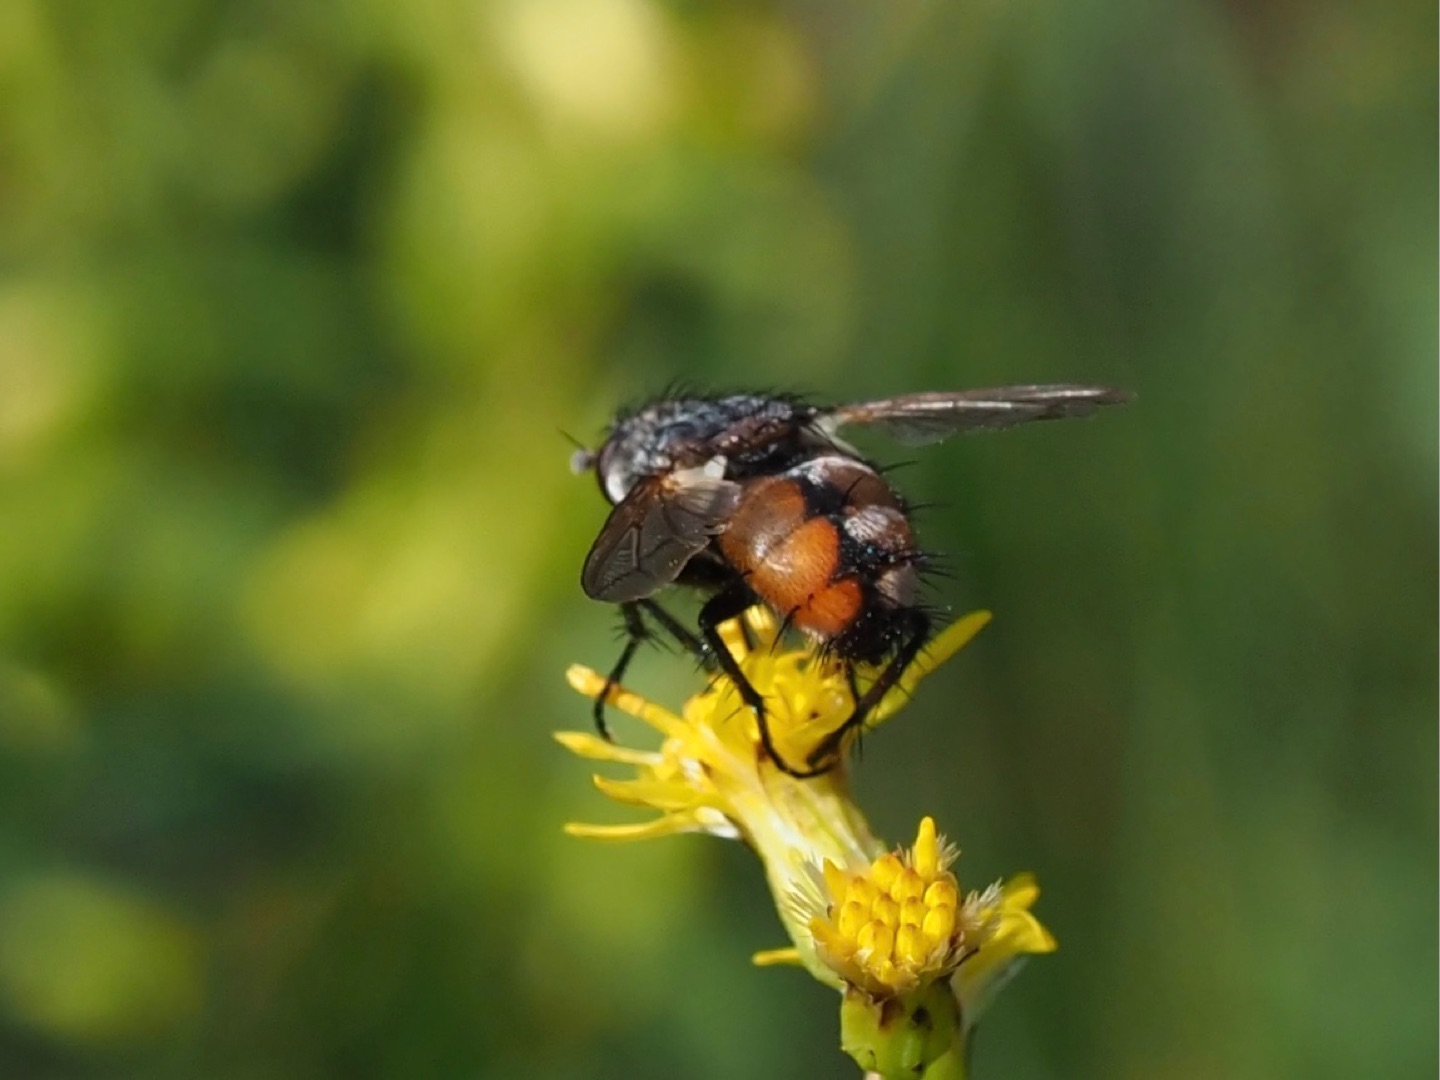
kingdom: Animalia
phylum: Arthropoda
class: Insecta
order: Diptera
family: Tachinidae
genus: Peleteria
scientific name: Peleteria rubescens
